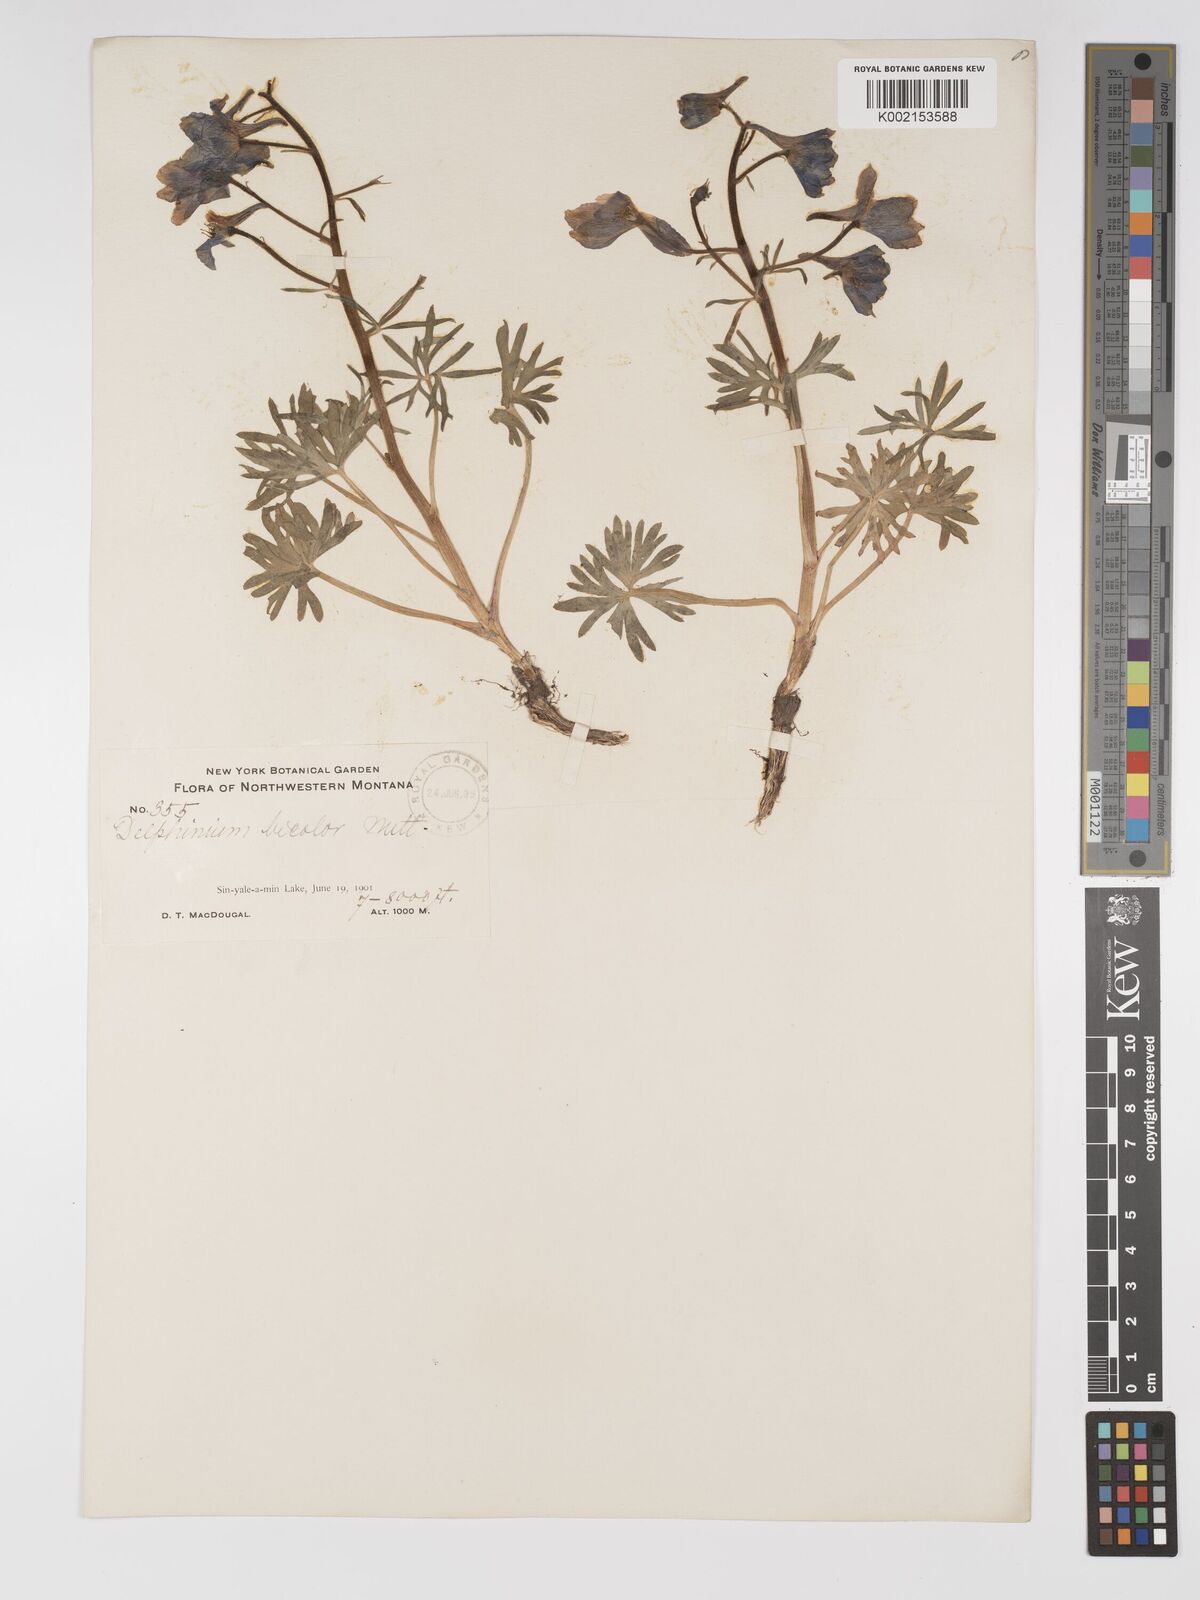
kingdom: Plantae
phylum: Tracheophyta
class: Magnoliopsida
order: Ranunculales
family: Ranunculaceae
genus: Delphinium
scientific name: Delphinium bicolor
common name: Low larkspur
